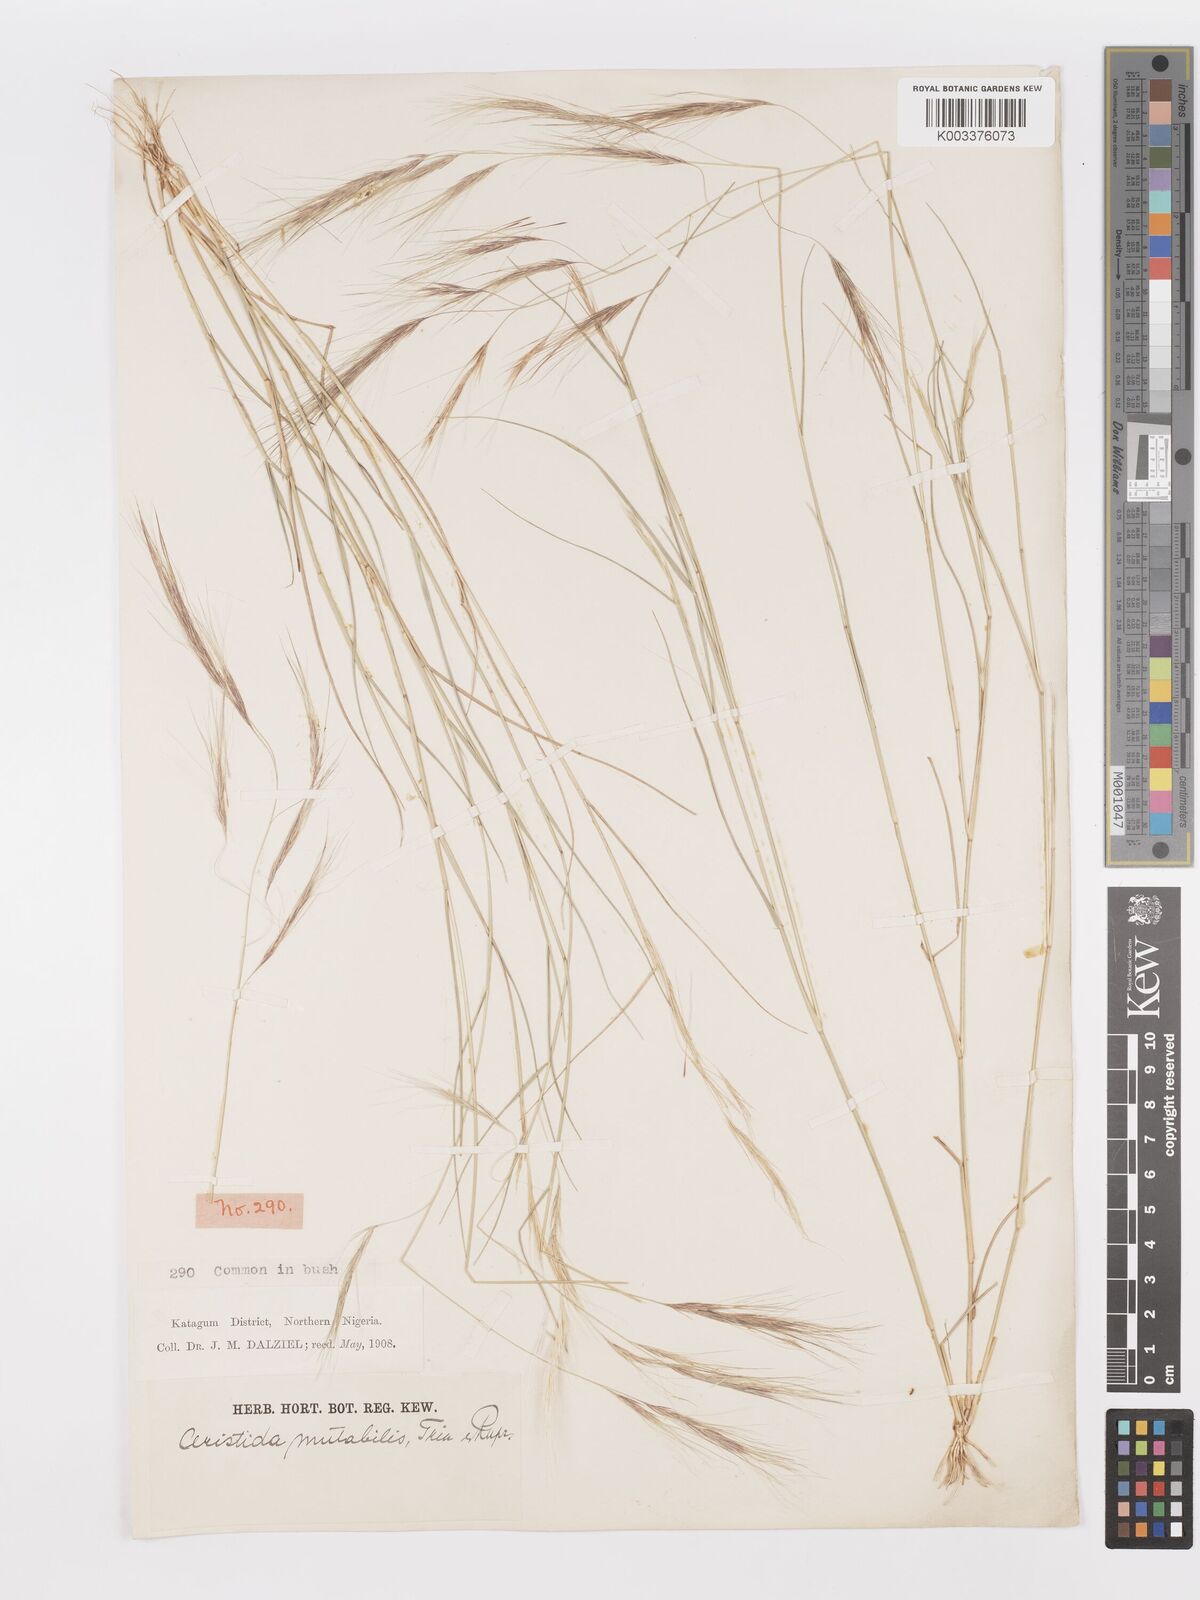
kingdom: Plantae
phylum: Tracheophyta
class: Liliopsida
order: Poales
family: Poaceae
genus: Aristida
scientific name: Aristida mutabilis
